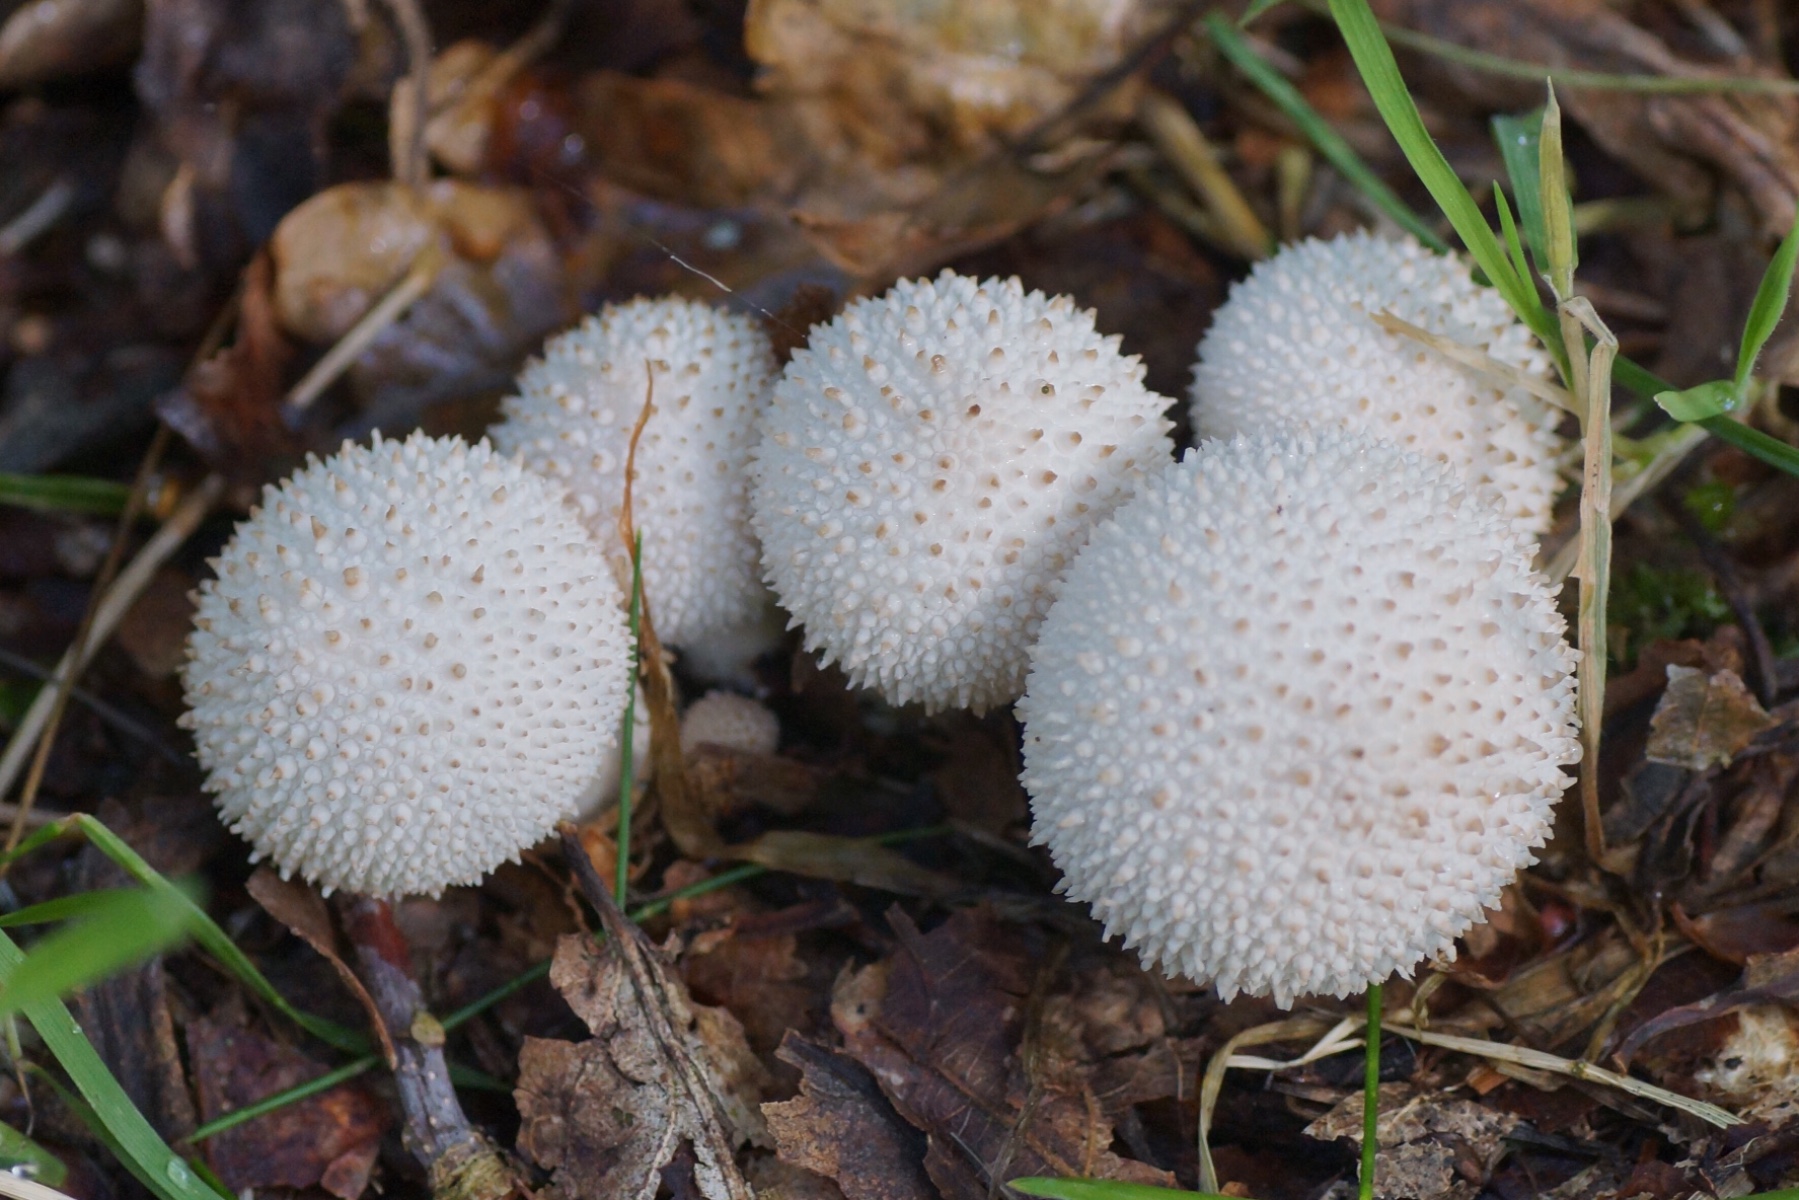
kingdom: Fungi
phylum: Basidiomycota
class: Agaricomycetes
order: Agaricales
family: Lycoperdaceae
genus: Lycoperdon
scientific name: Lycoperdon perlatum
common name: krystal-støvbold
